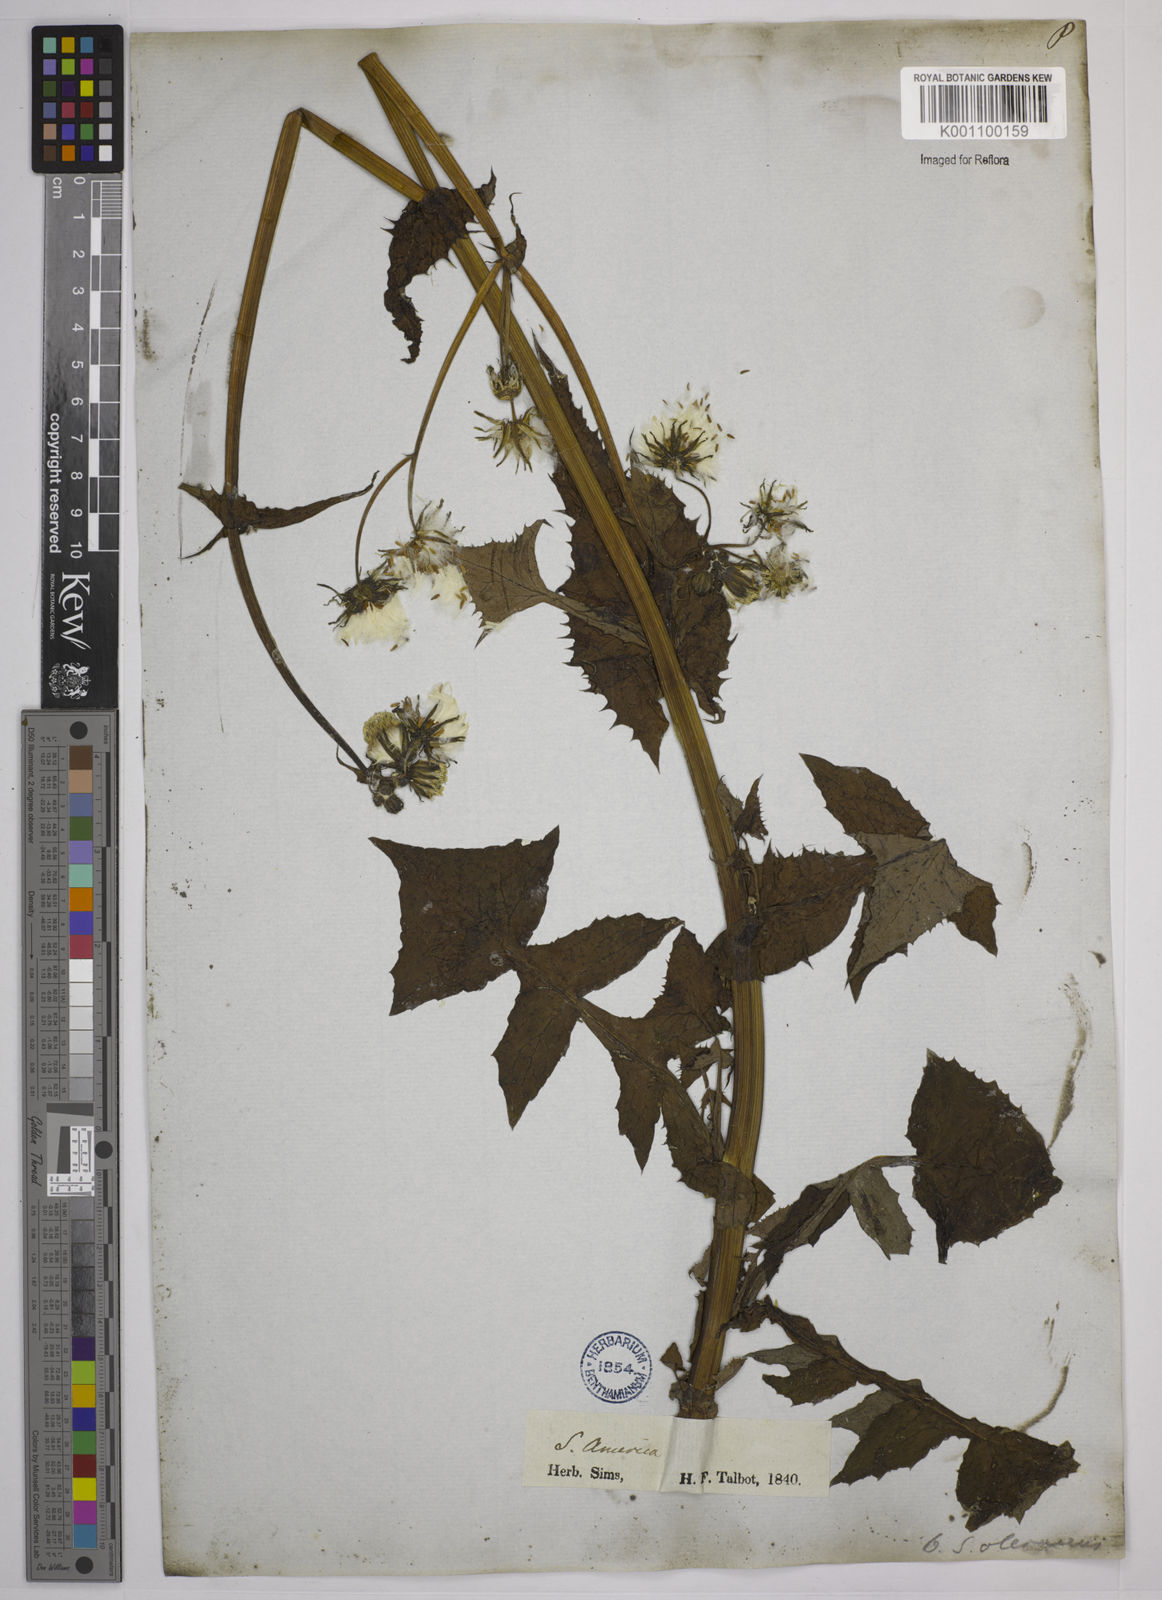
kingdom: Plantae
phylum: Tracheophyta
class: Magnoliopsida
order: Asterales
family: Asteraceae
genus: Sonchus
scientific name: Sonchus asper
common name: Prickly sow-thistle
